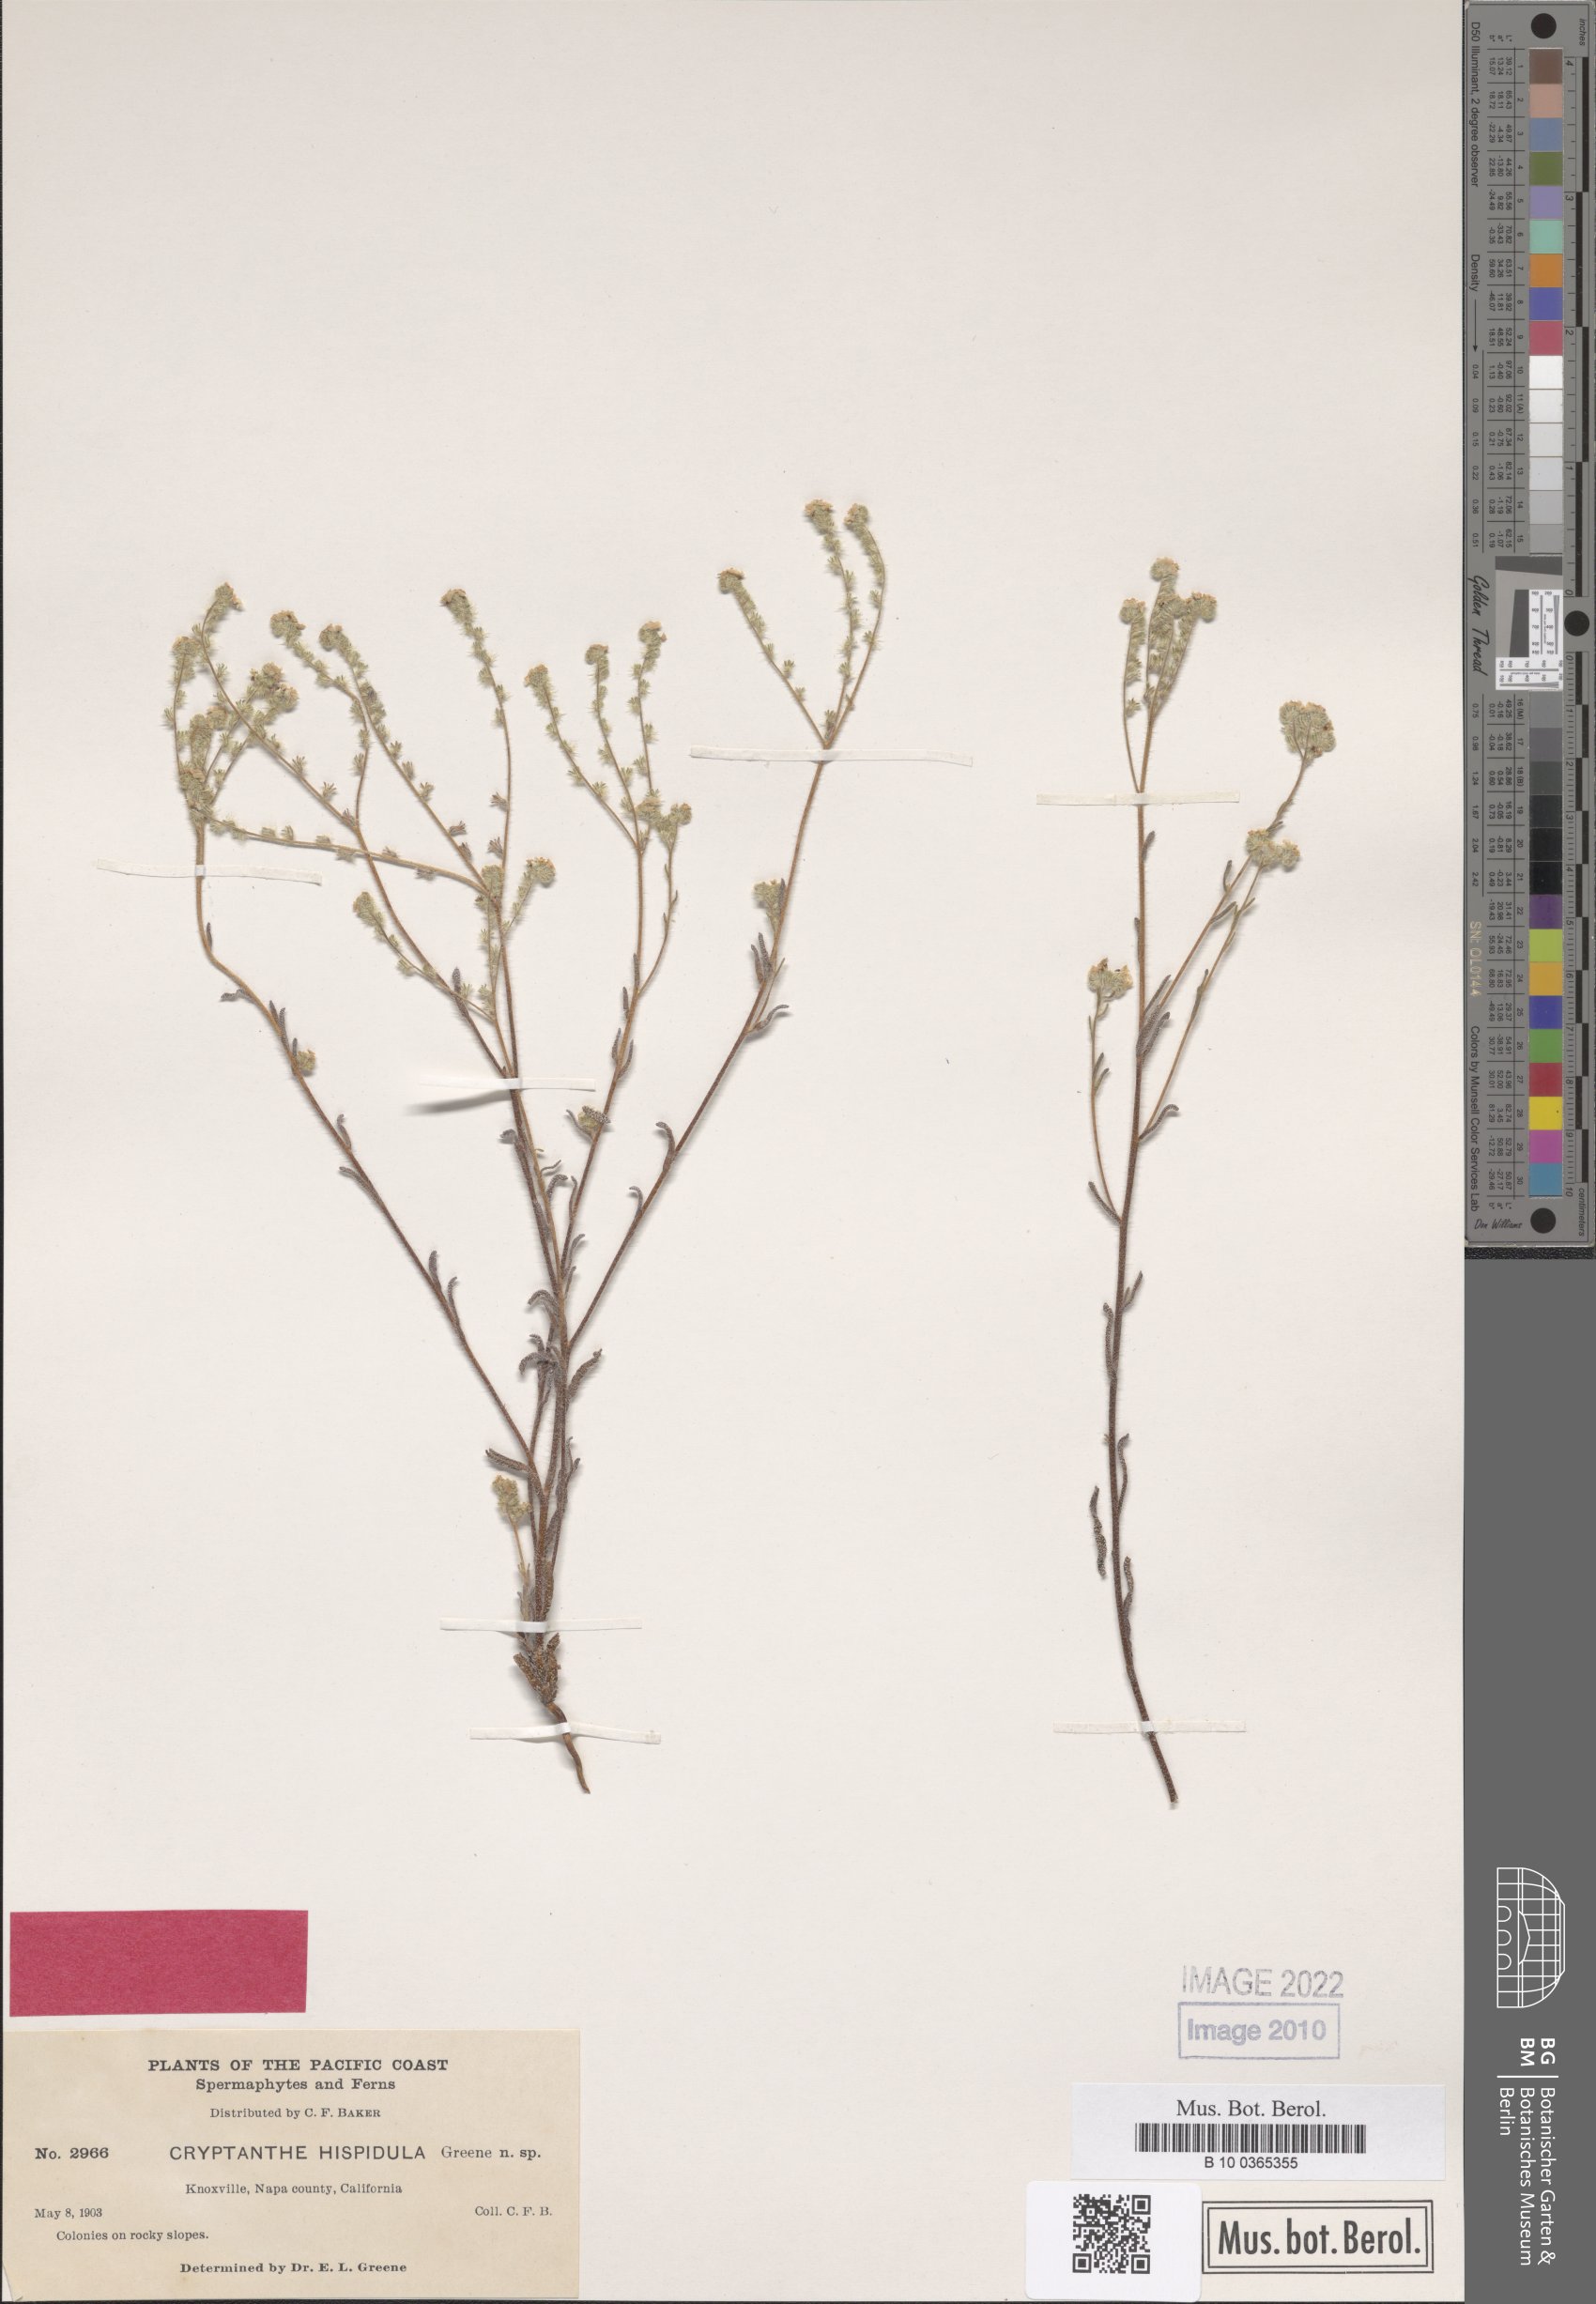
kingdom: Plantae
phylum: Tracheophyta
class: Magnoliopsida
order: Boraginales
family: Boraginaceae
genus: Cryptantha
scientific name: Cryptantha hispidula
